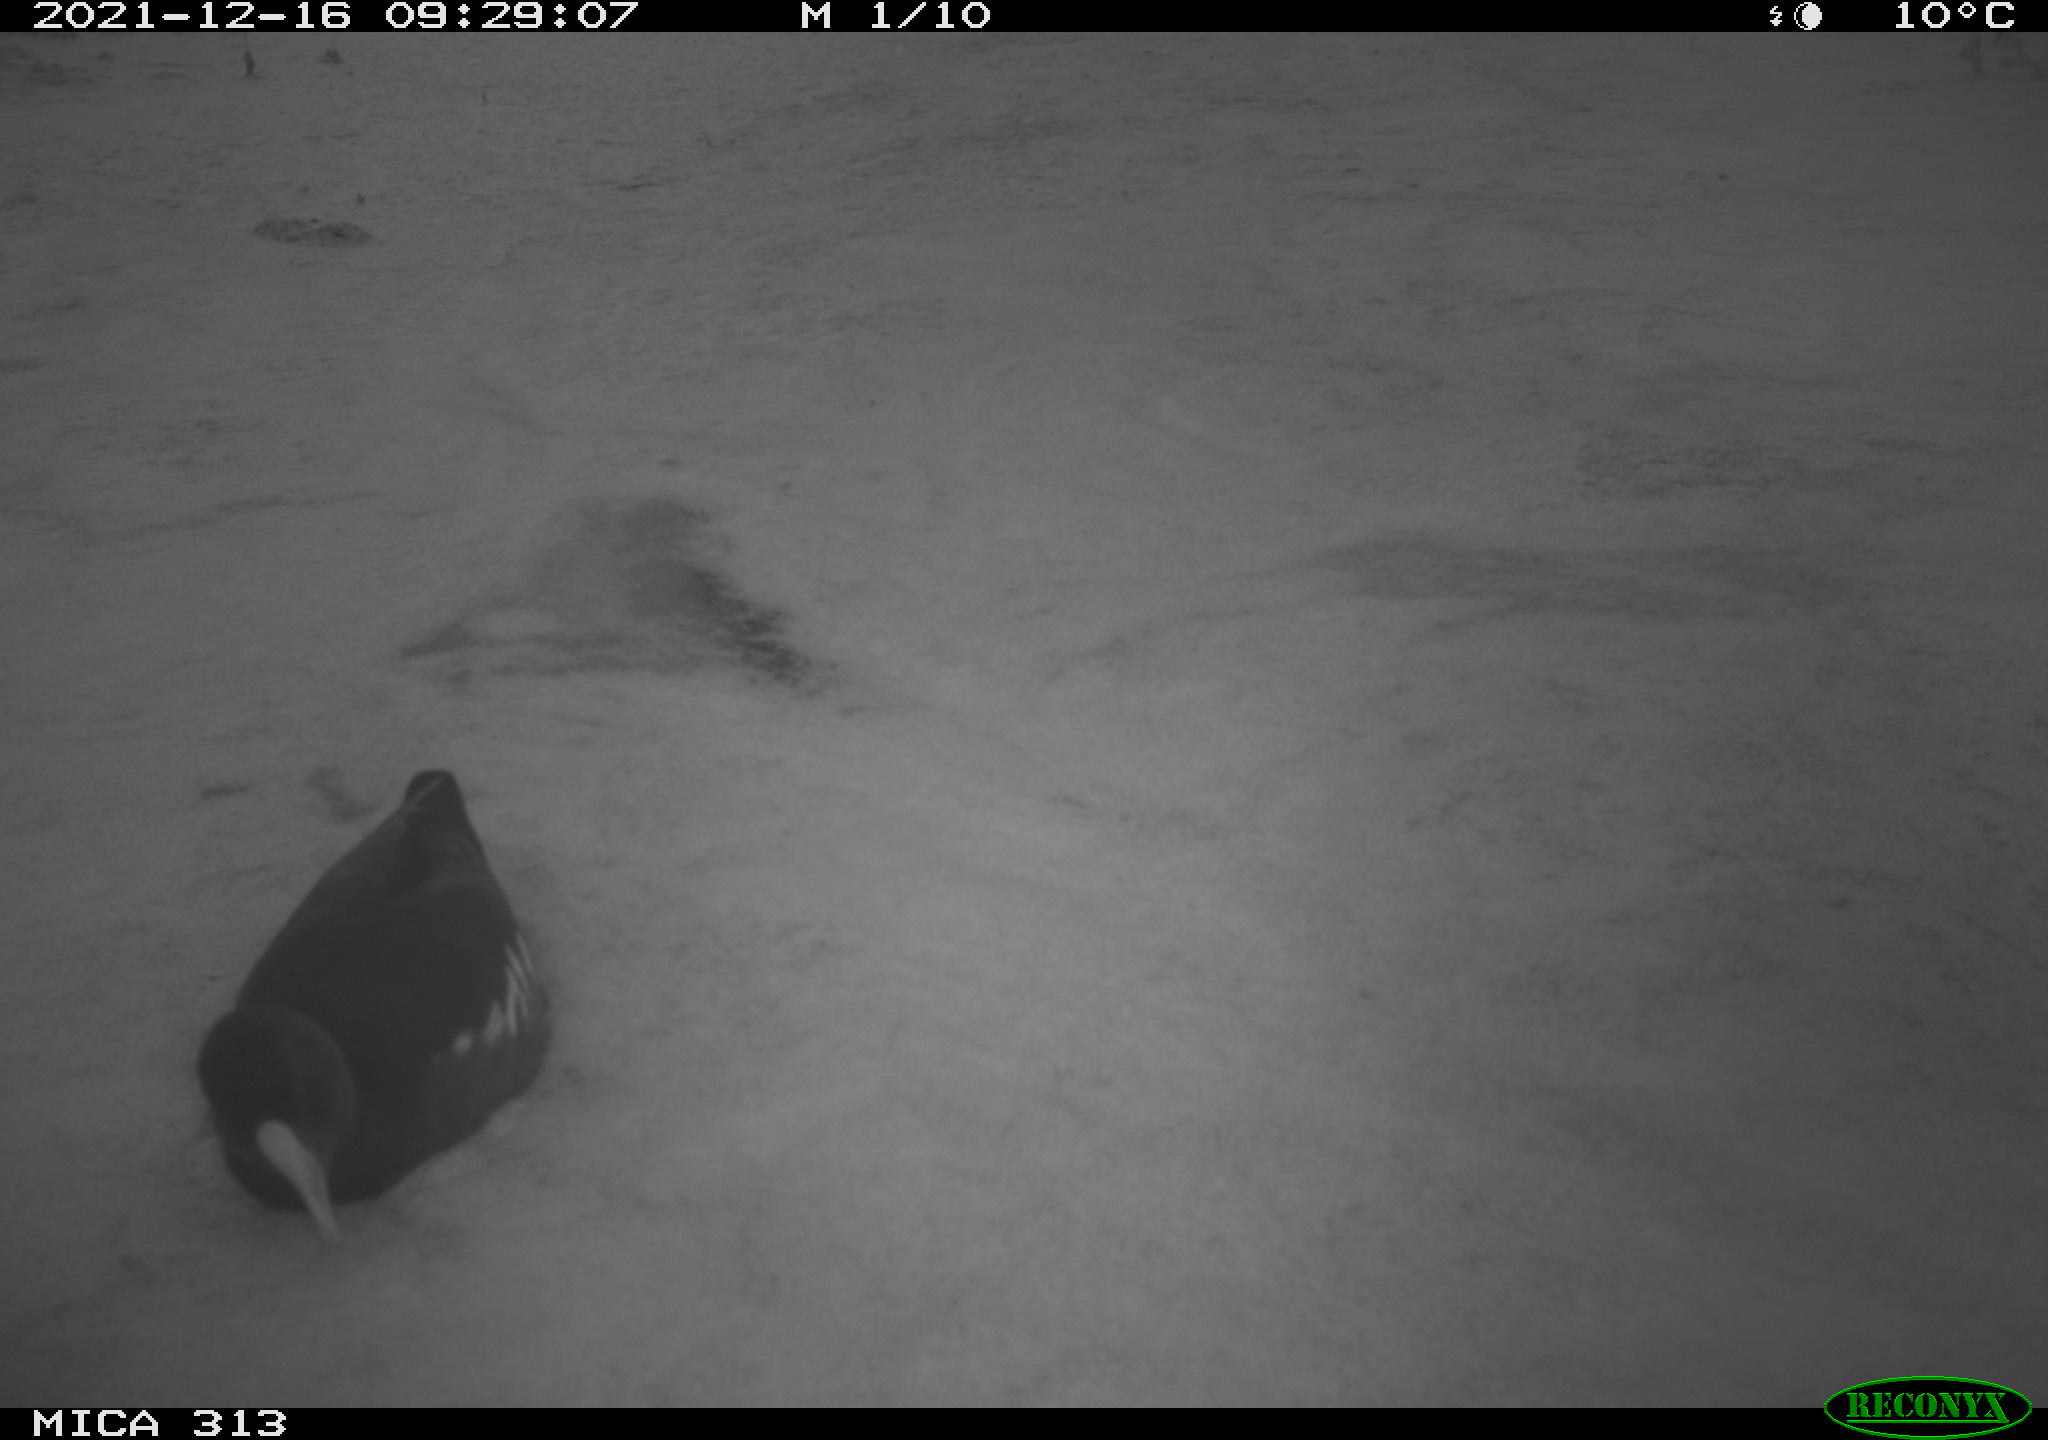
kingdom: Animalia
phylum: Chordata
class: Aves
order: Gruiformes
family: Rallidae
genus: Gallinula
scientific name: Gallinula chloropus
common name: Common moorhen
